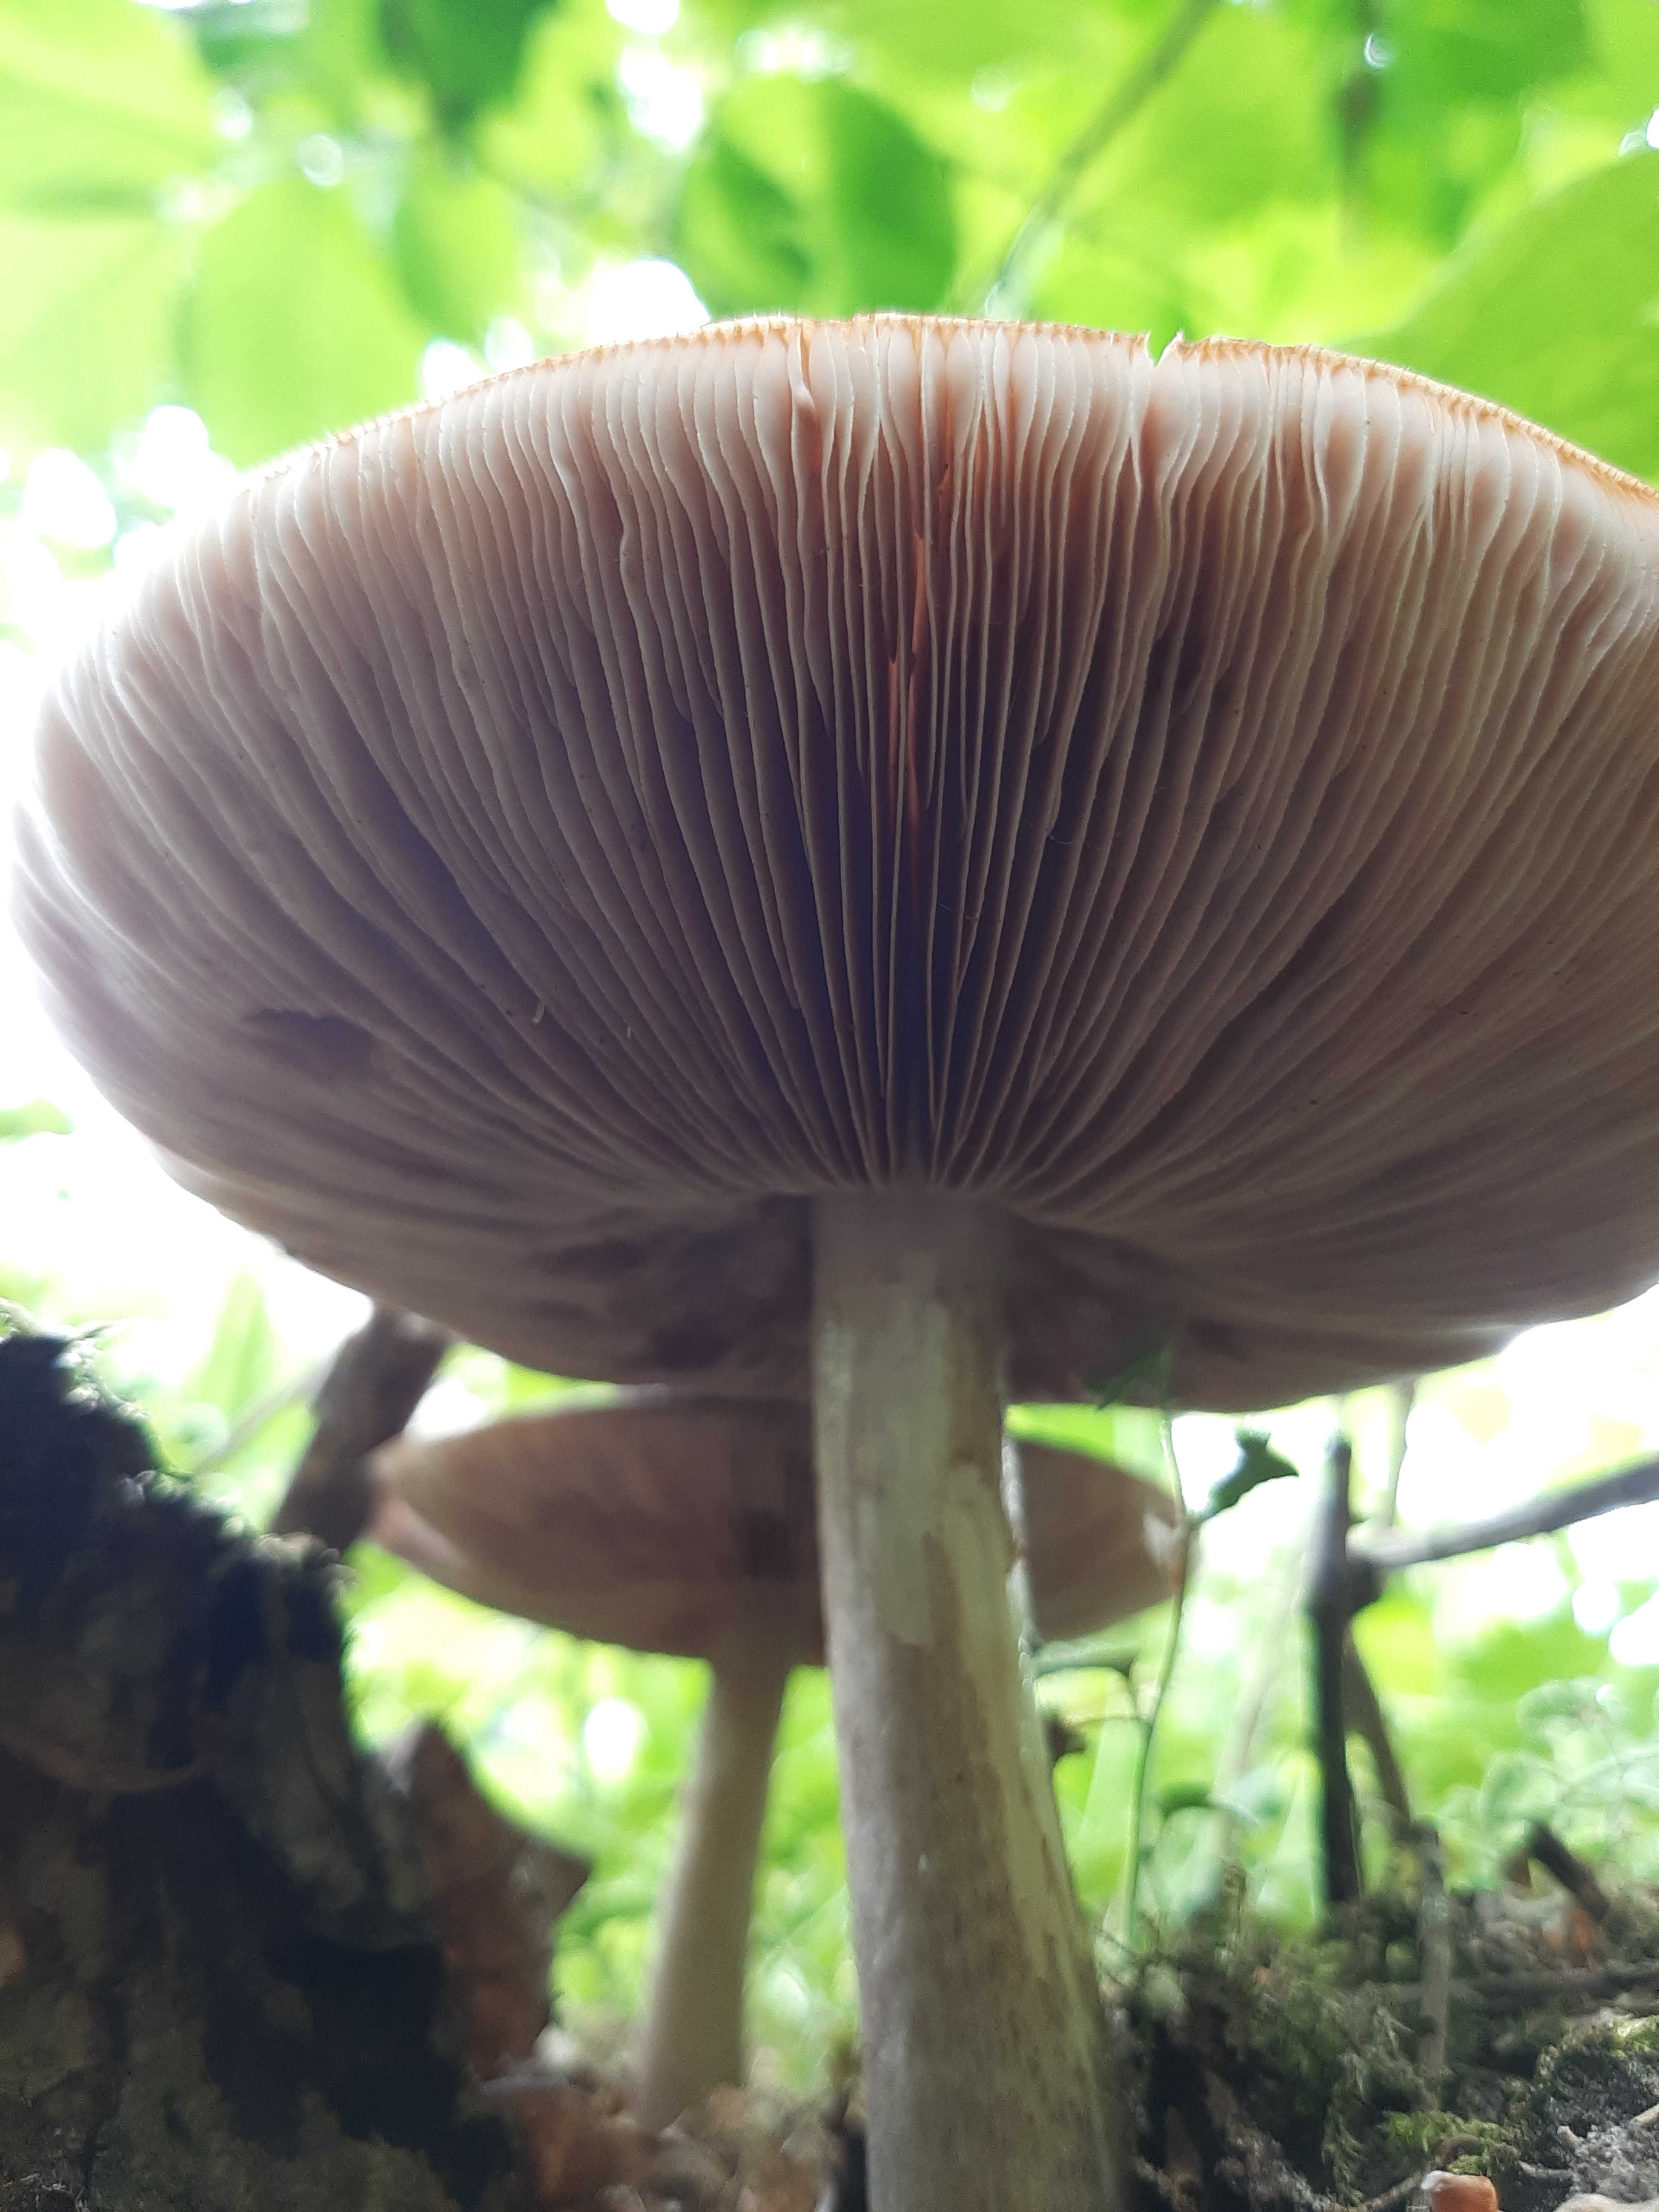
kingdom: Fungi
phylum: Basidiomycota
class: Agaricomycetes
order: Agaricales
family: Pluteaceae
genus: Pluteus
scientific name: Pluteus cervinus
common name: sodfarvet skærmhat
